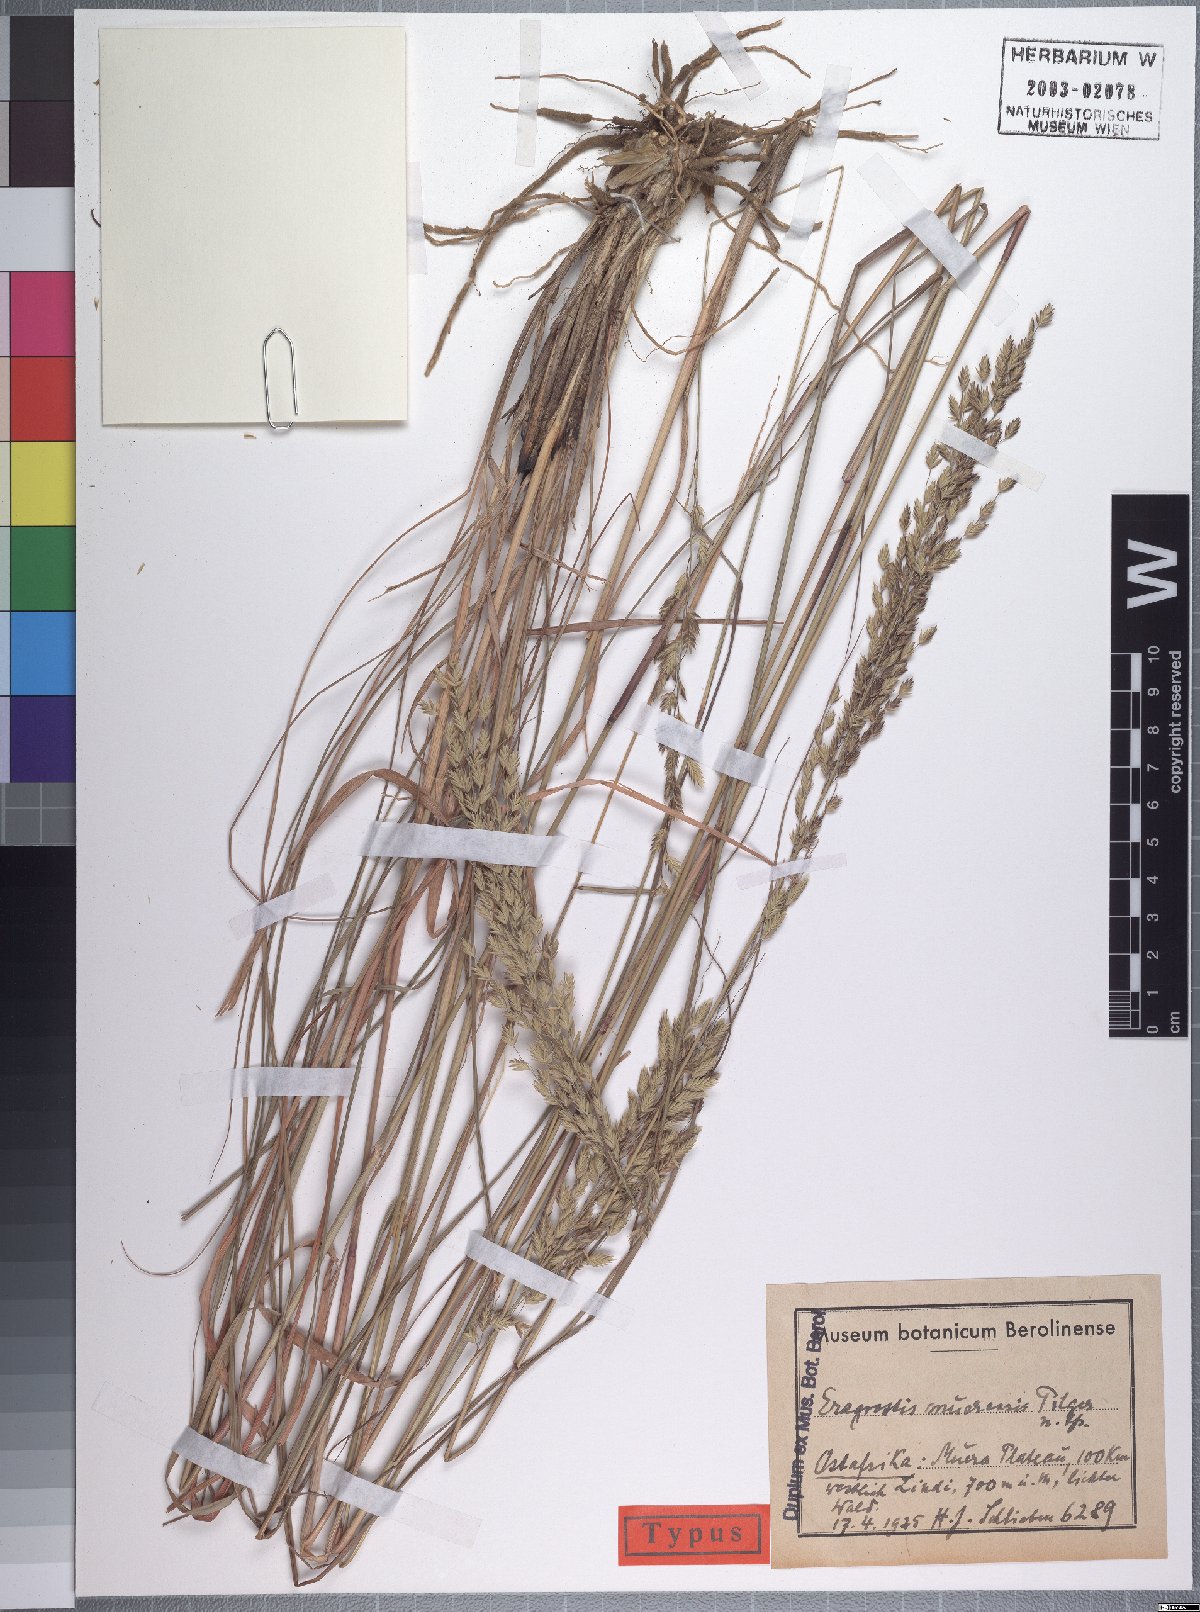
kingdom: Plantae
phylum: Tracheophyta
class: Liliopsida
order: Poales
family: Poaceae
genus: Eragrostis
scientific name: Eragrostis muerensis
